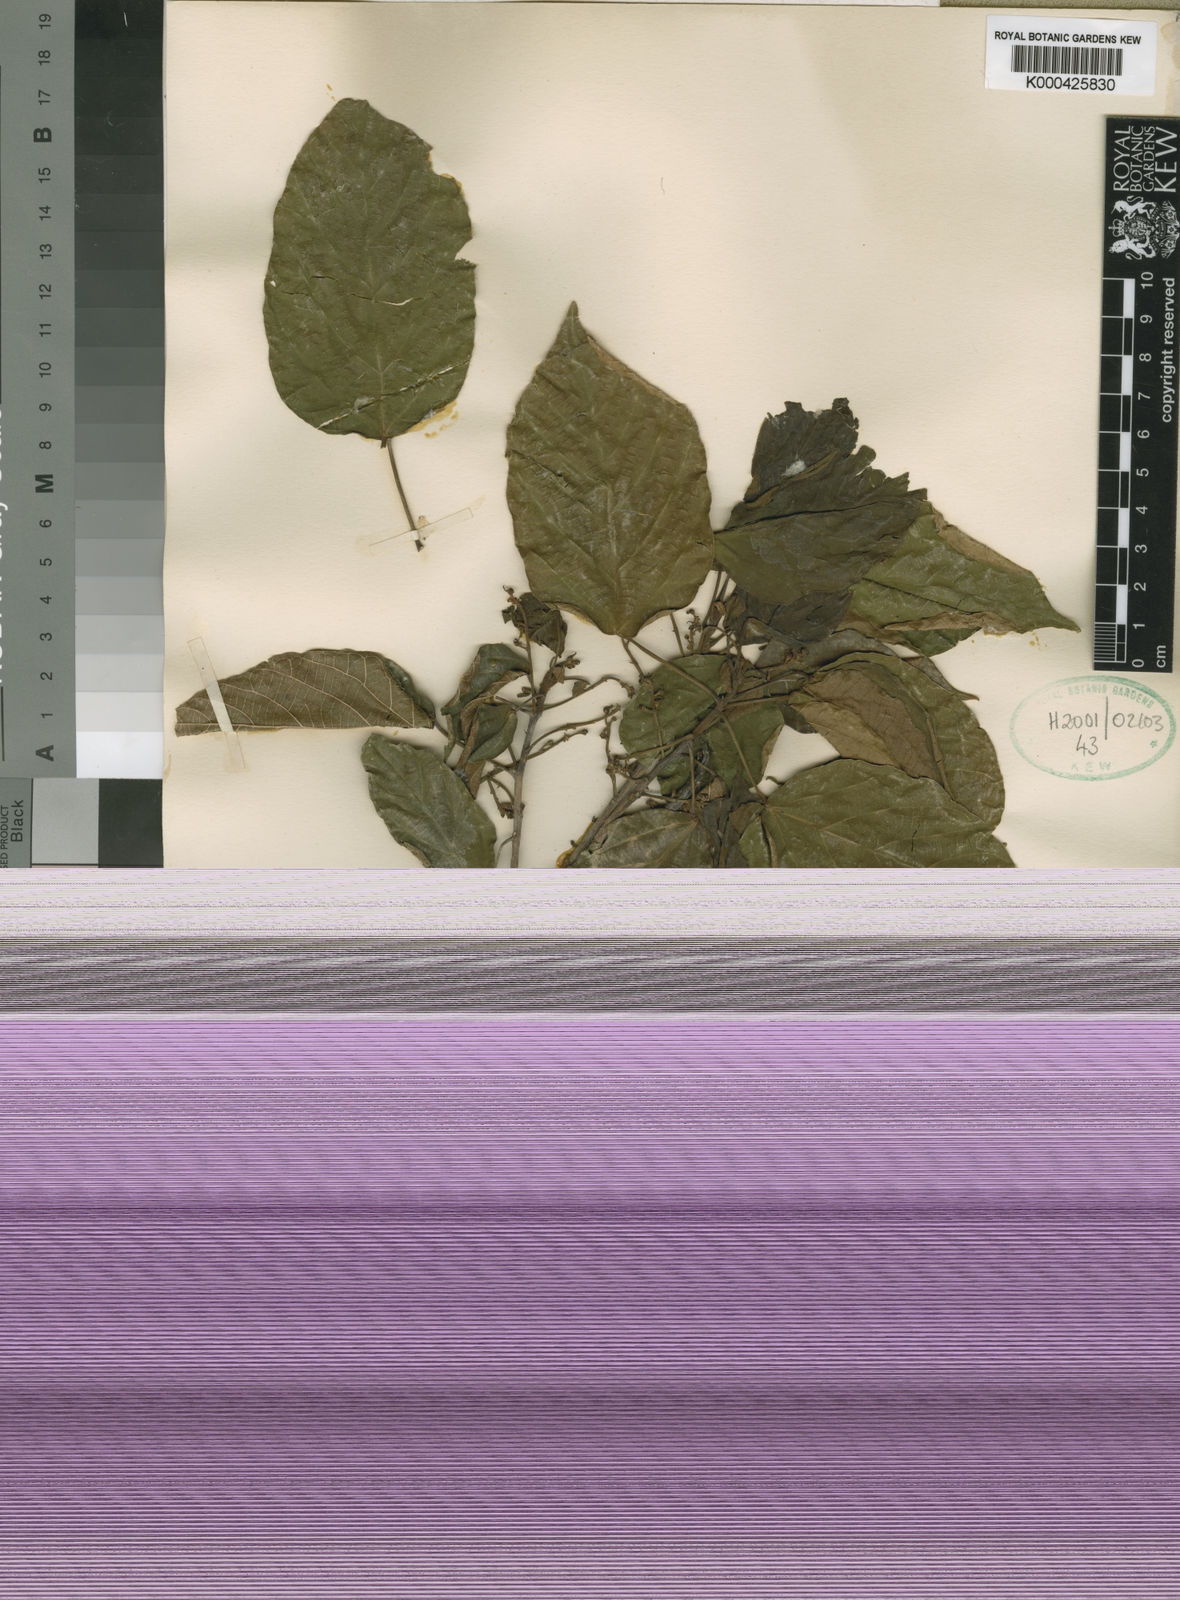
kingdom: Plantae
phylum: Tracheophyta
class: Magnoliopsida
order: Malpighiales
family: Euphorbiaceae
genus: Macaranga
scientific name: Macaranga mellifera
